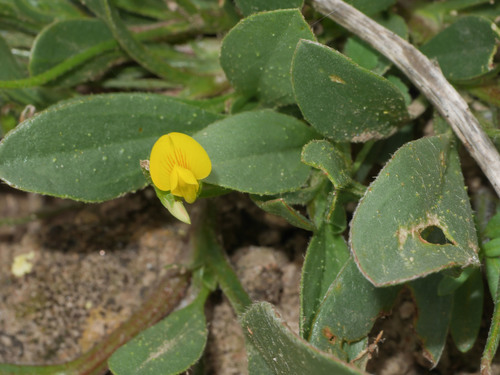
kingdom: Plantae
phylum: Tracheophyta
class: Magnoliopsida
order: Fabales
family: Fabaceae
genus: Scorpiurus
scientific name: Scorpiurus muricatus
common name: Caterpillar-plant
